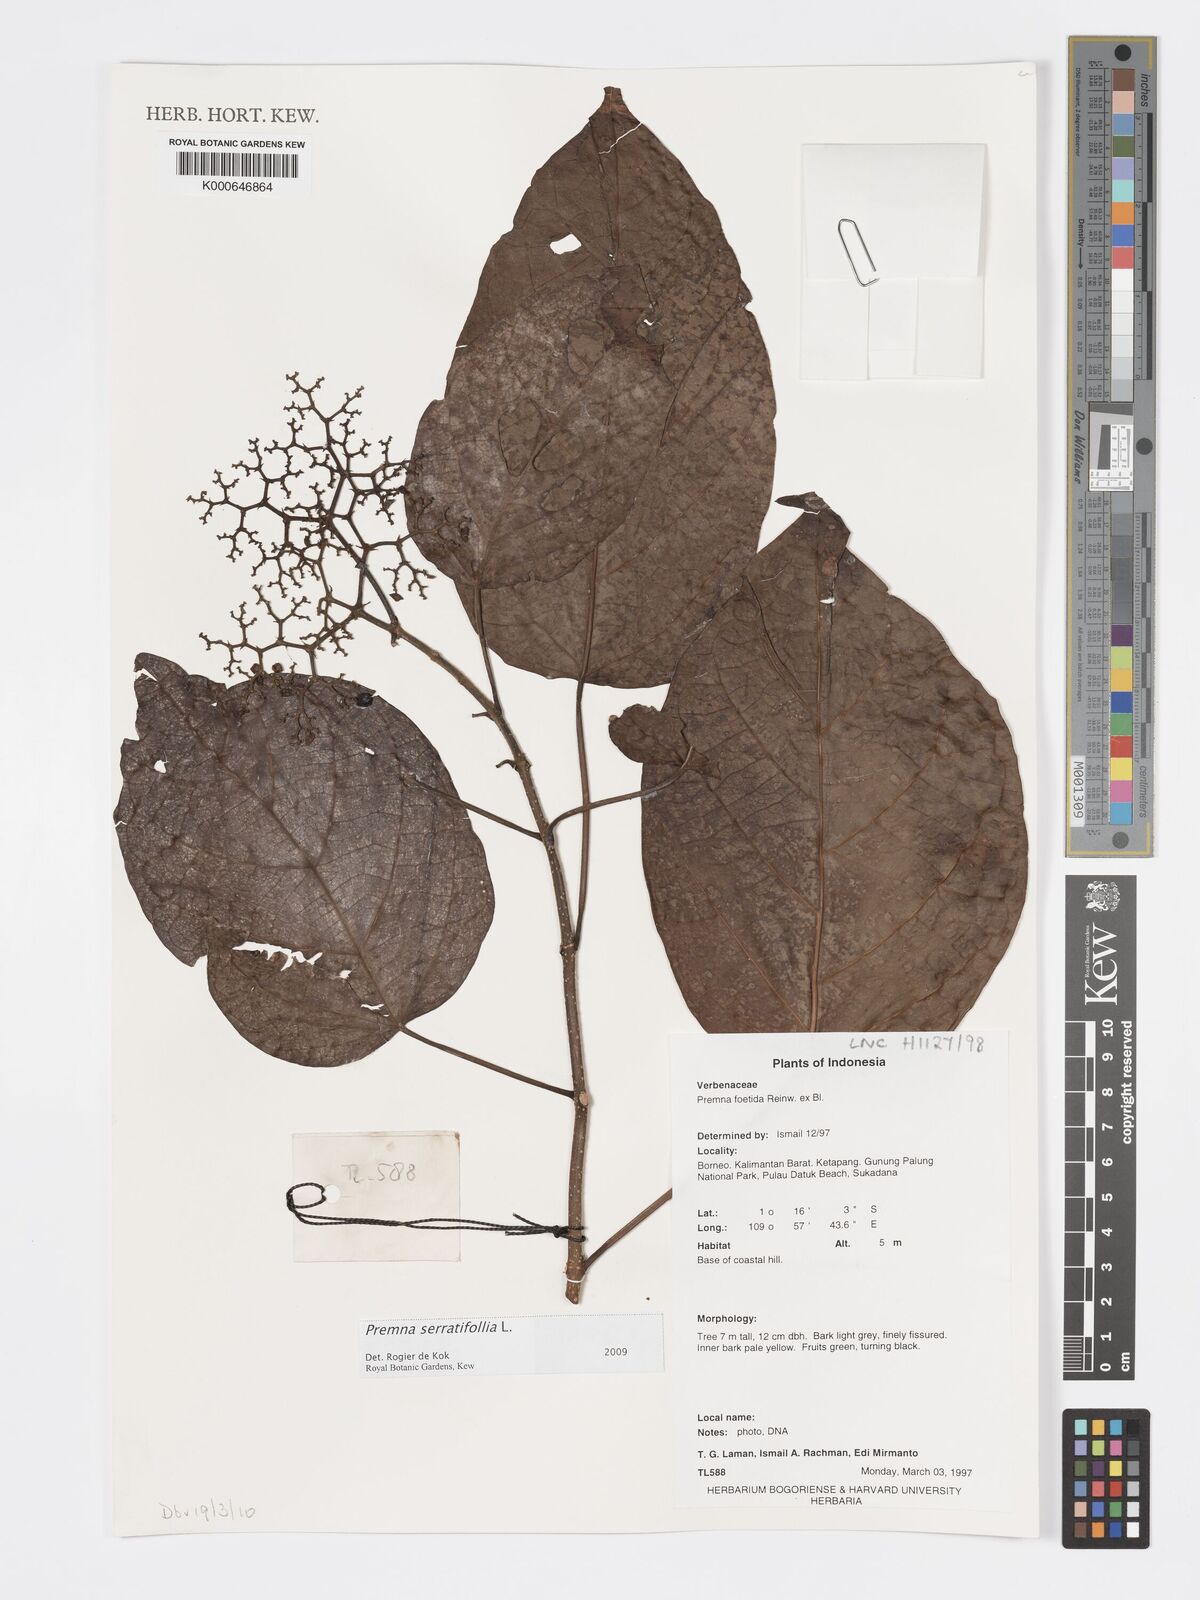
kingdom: Plantae
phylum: Tracheophyta
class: Magnoliopsida
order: Lamiales
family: Lamiaceae
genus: Premna
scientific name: Premna serratifolia
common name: Bastard guelder
